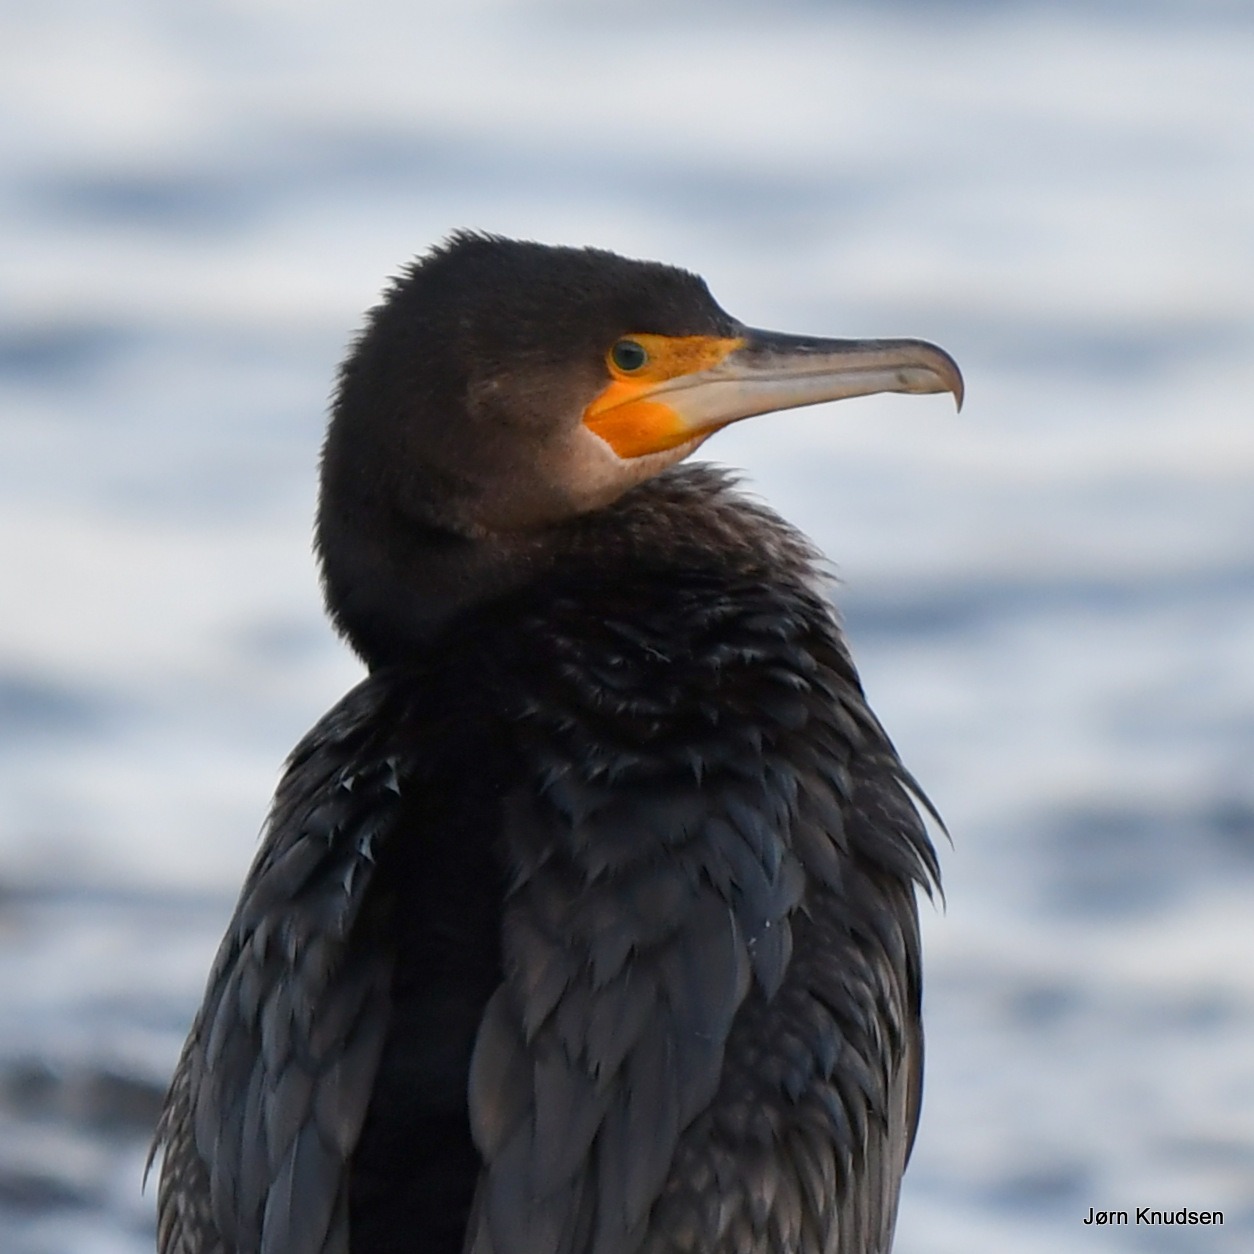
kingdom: Animalia
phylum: Chordata
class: Aves
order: Suliformes
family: Phalacrocoracidae
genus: Phalacrocorax
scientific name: Phalacrocorax carbo
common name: Skarv
